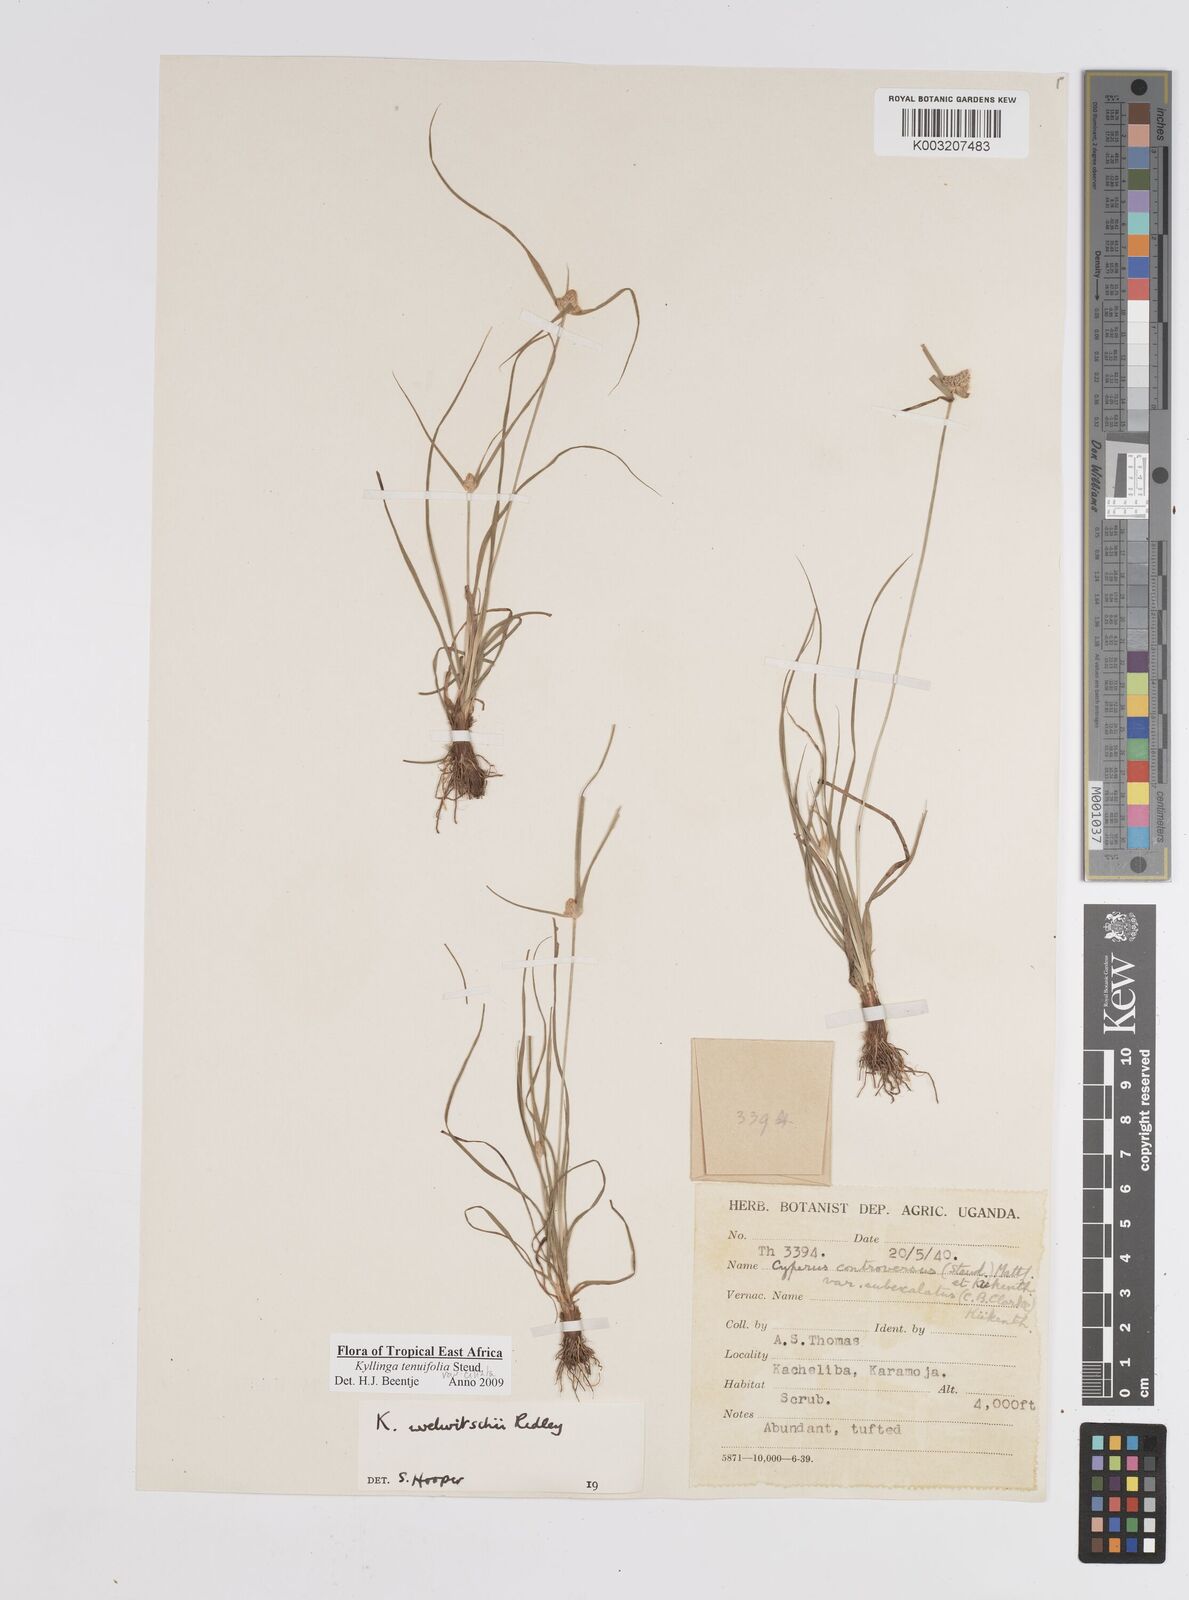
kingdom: Plantae
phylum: Tracheophyta
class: Liliopsida
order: Poales
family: Cyperaceae
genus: Cyperus
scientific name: Cyperus
